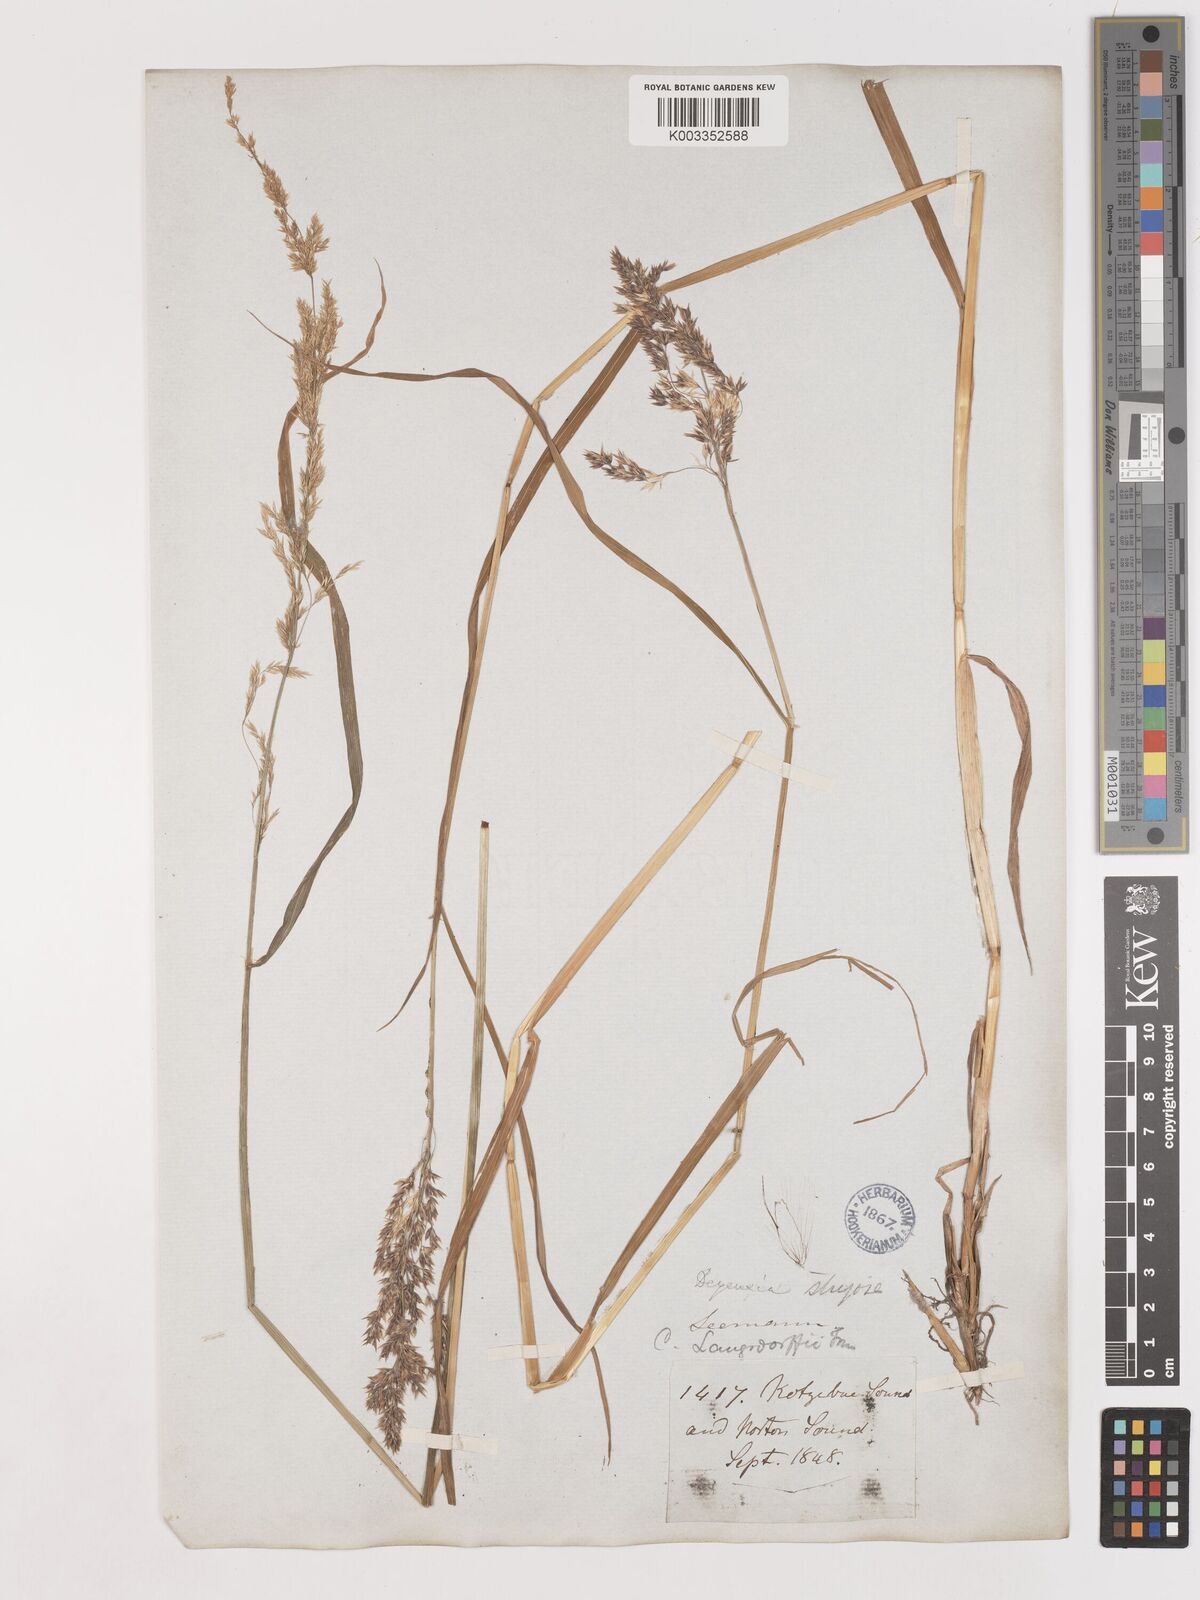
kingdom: Plantae
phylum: Tracheophyta
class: Liliopsida
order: Poales
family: Poaceae
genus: Calamagrostis
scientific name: Calamagrostis canadensis
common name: Canada bluejoint
